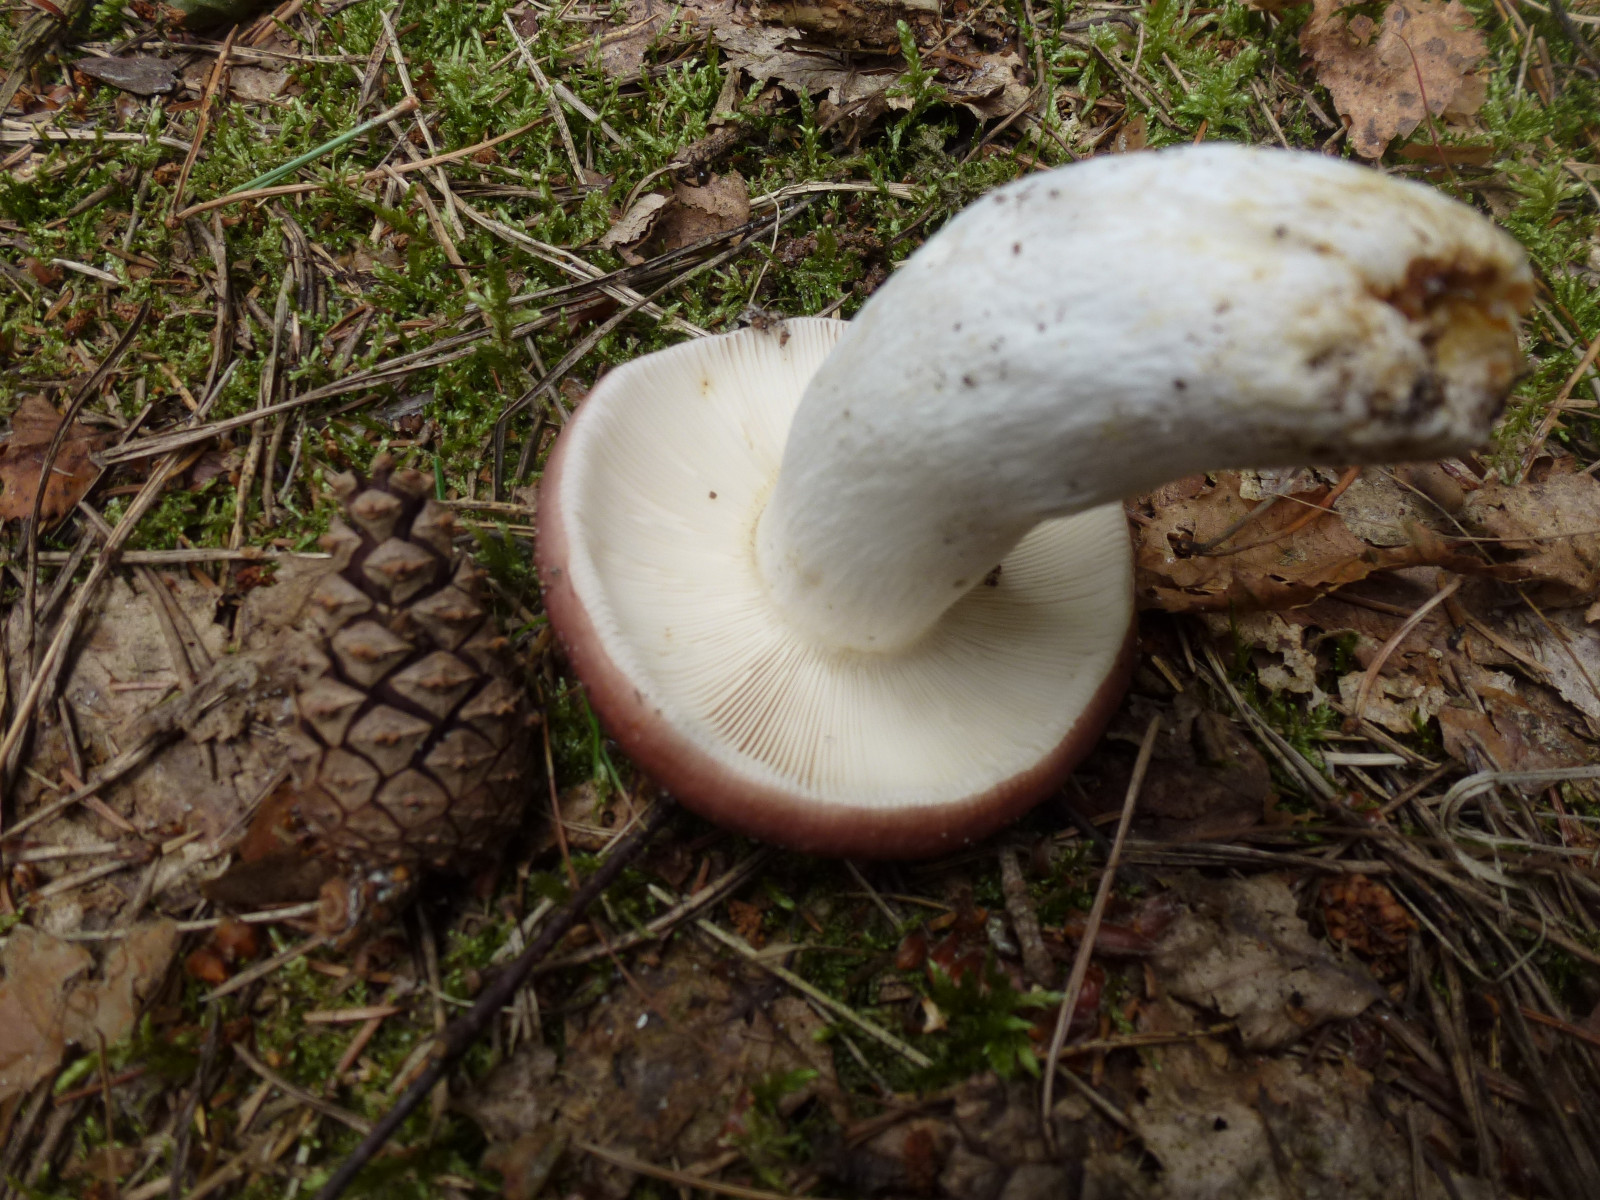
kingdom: Fungi
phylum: Basidiomycota
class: Agaricomycetes
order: Russulales
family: Russulaceae
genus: Russula
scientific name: Russula vesca
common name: spiselig skørhat
